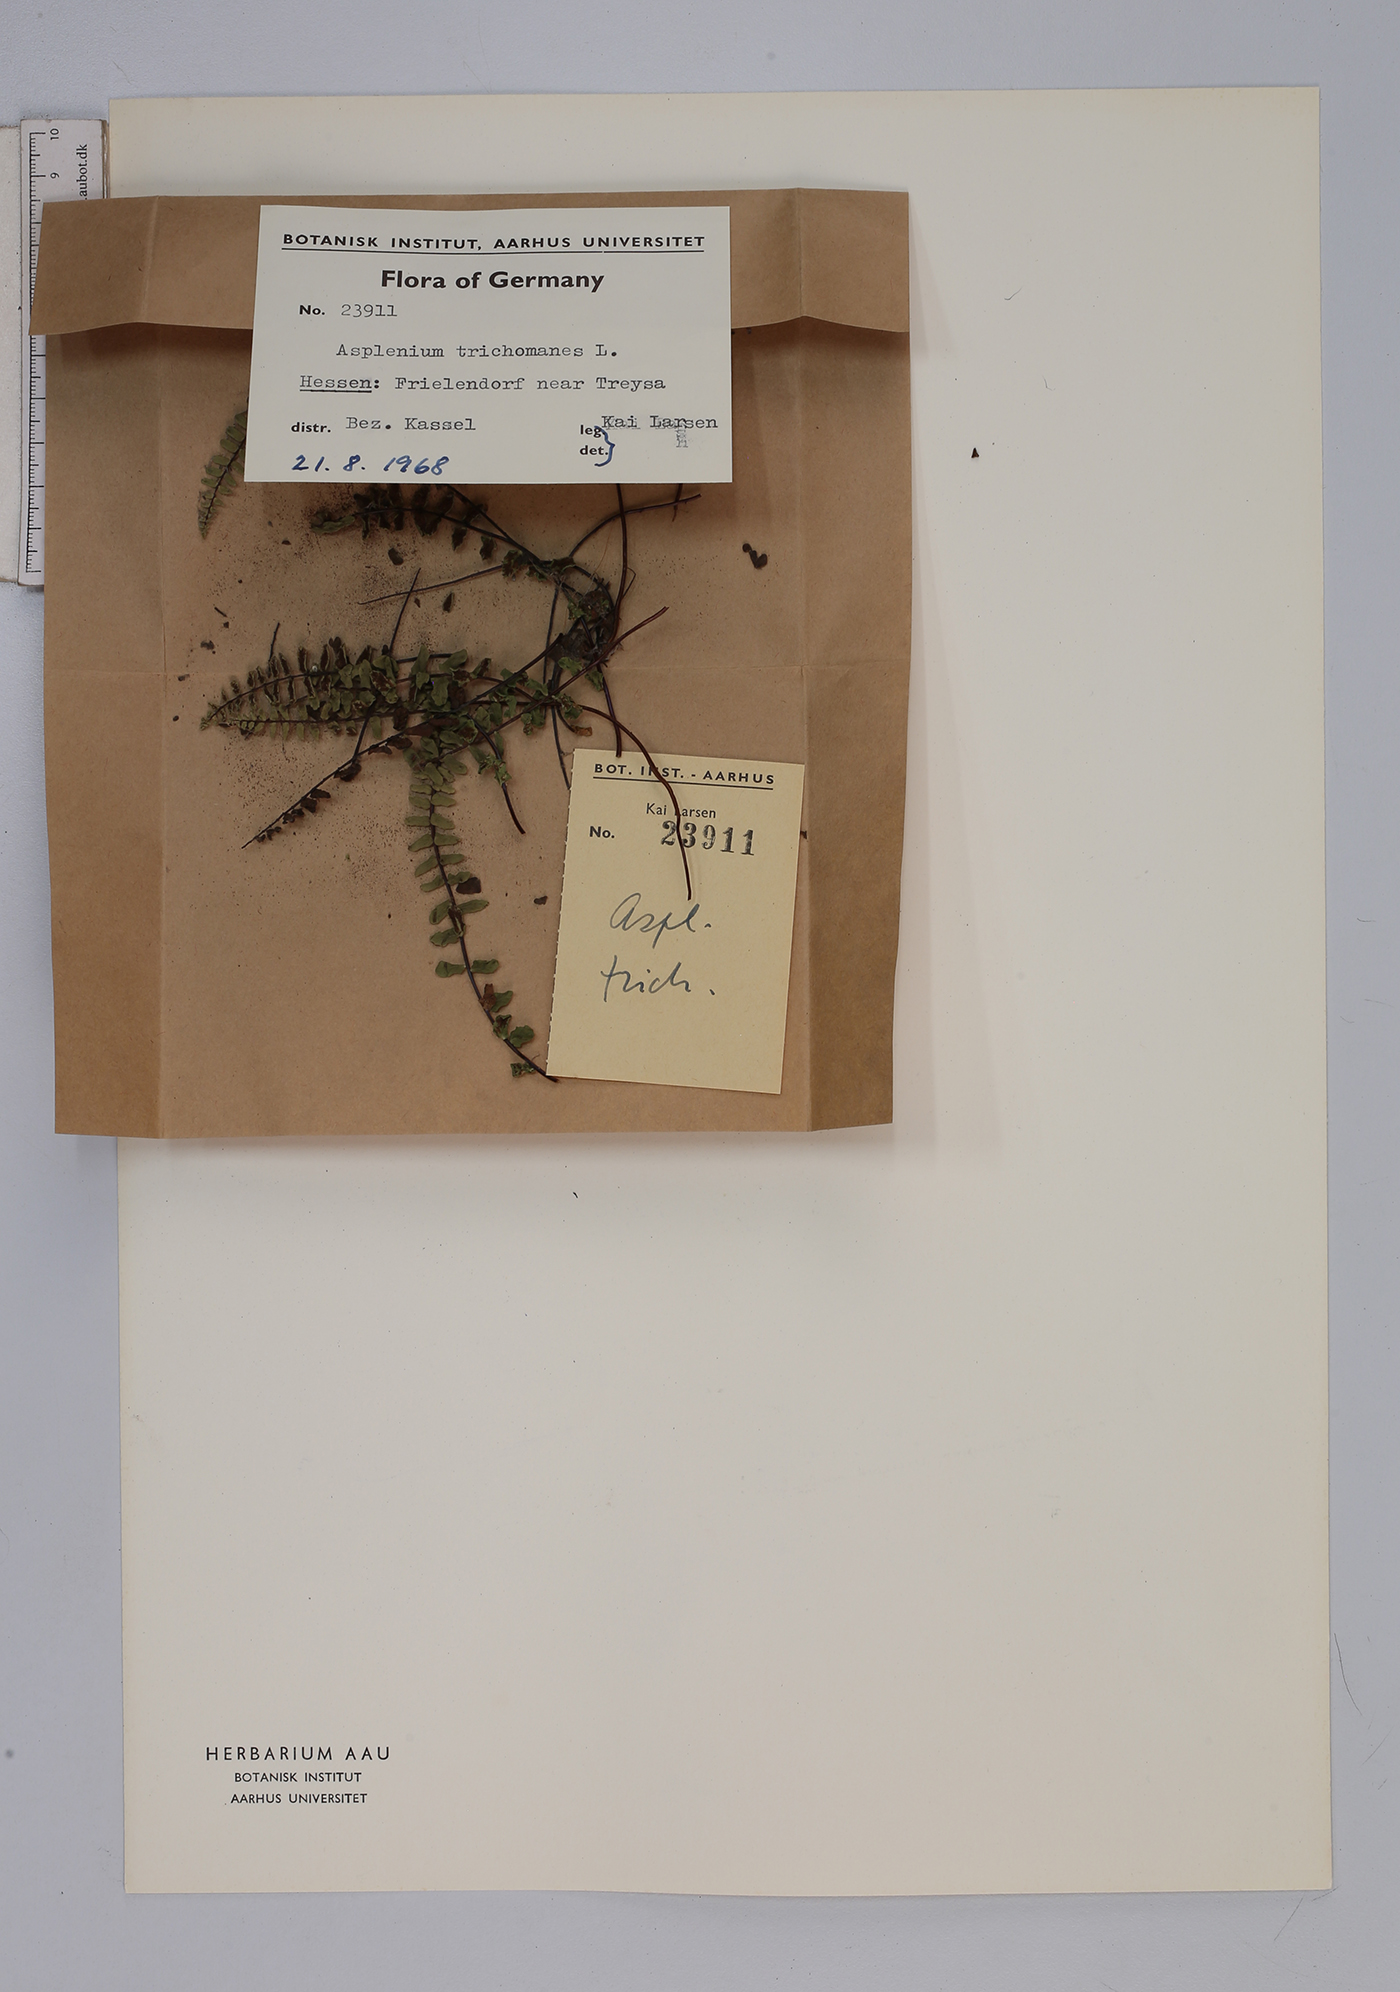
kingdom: Plantae
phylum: Tracheophyta
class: Polypodiopsida
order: Polypodiales
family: Aspleniaceae
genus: Asplenium
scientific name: Asplenium trichomanes
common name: Maidenhair spleenwort
